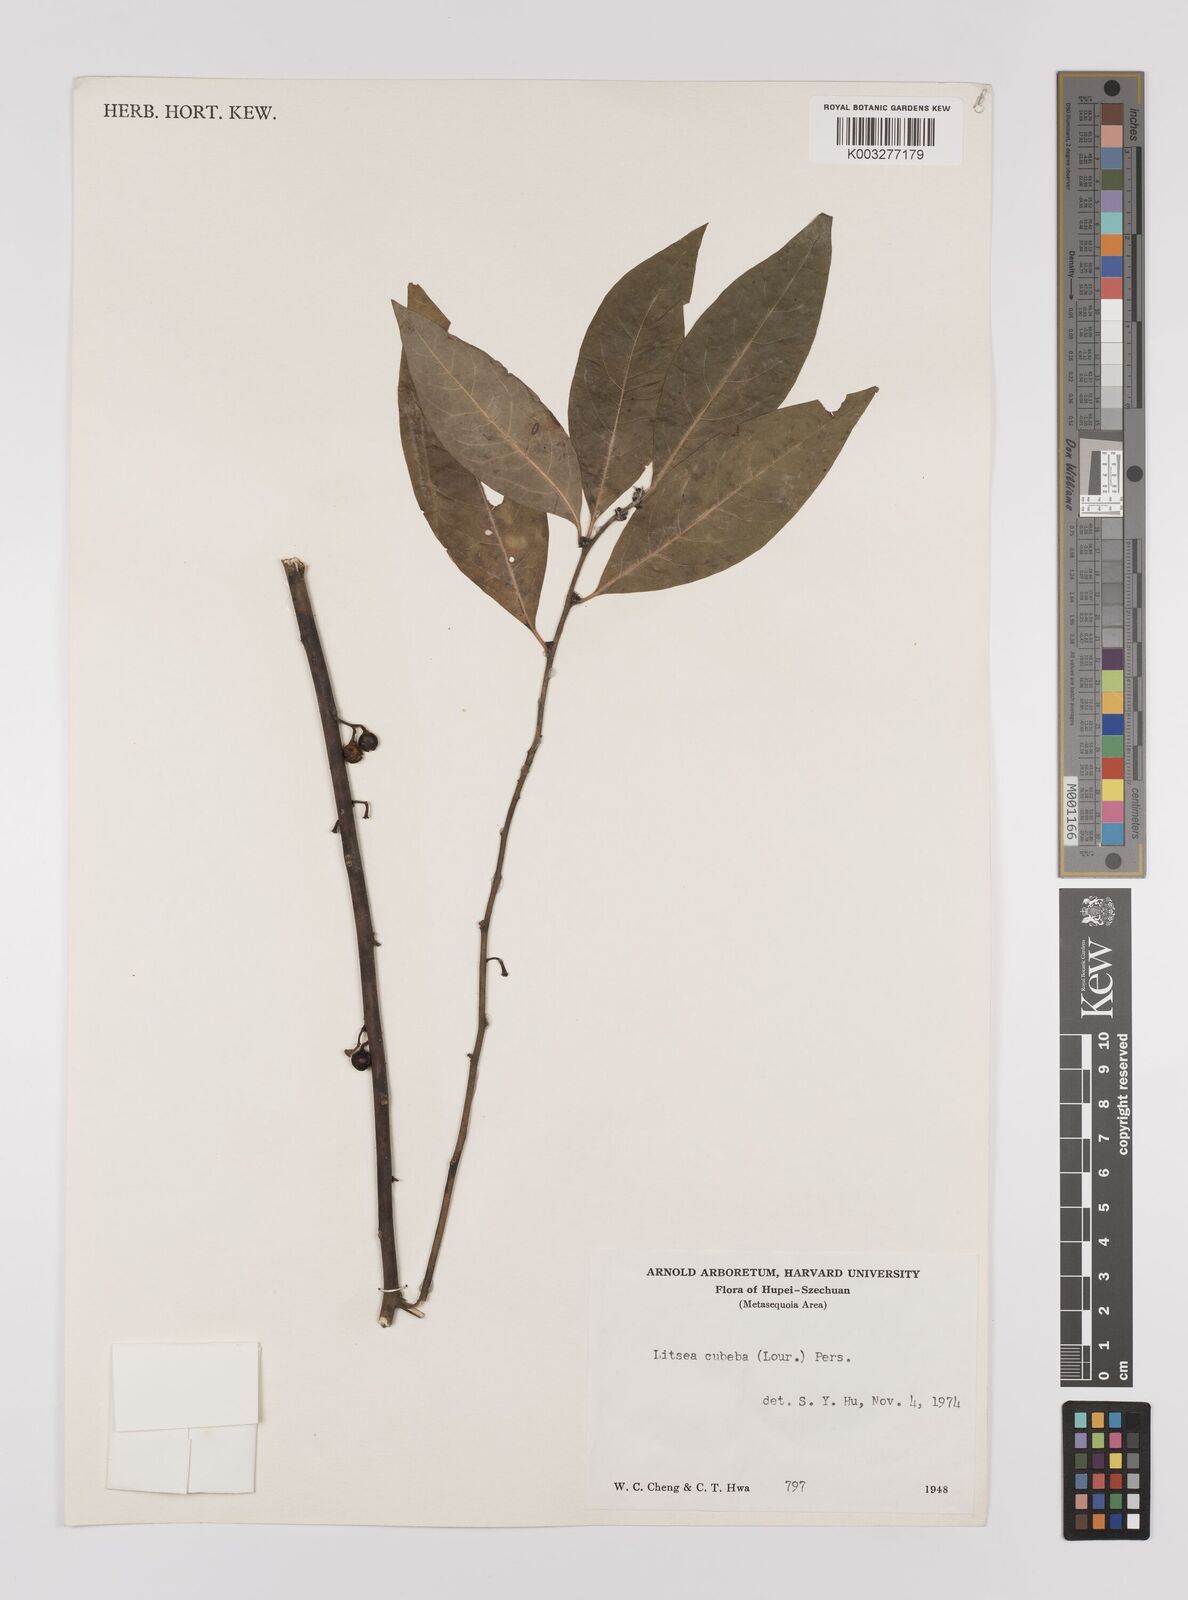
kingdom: Plantae
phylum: Tracheophyta
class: Magnoliopsida
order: Laurales
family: Lauraceae
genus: Litsea
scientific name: Litsea cubeba
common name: Mountain-pepper
